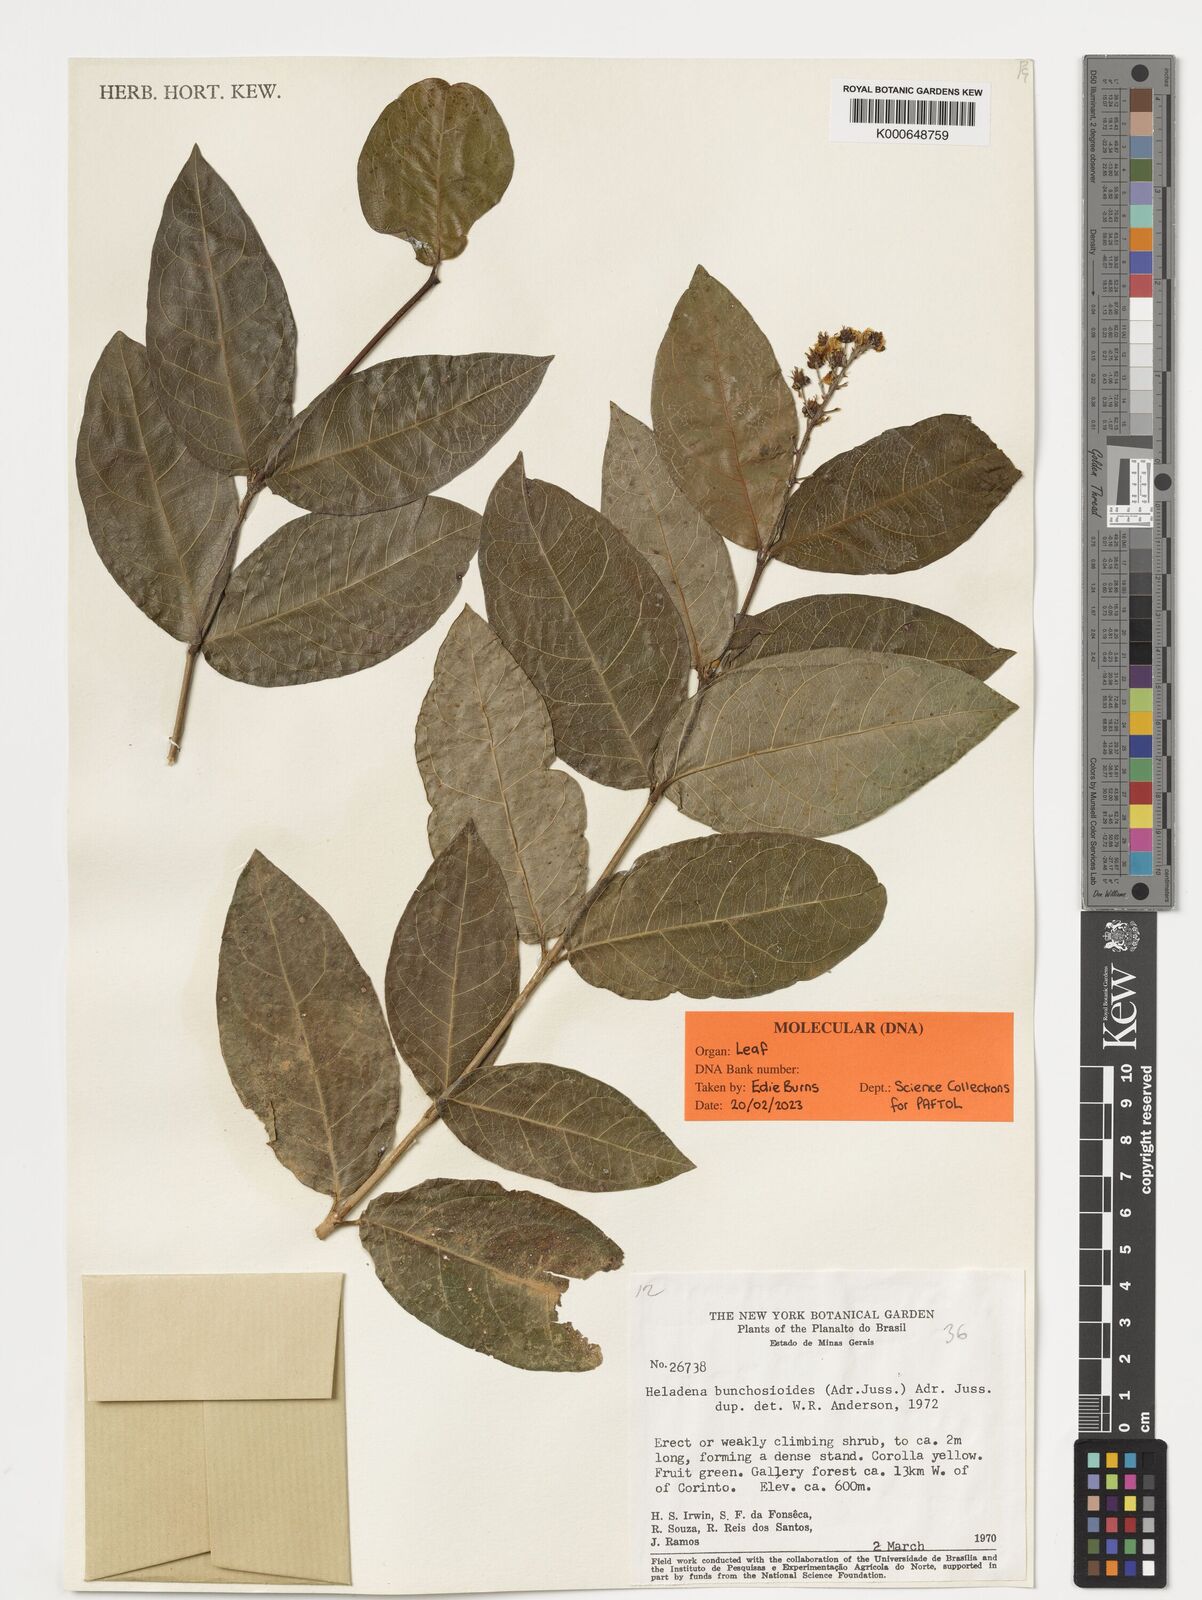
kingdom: Plantae
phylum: Tracheophyta
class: Magnoliopsida
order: Malpighiales
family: Malpighiaceae
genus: Heladena
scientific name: Heladena multiflora
